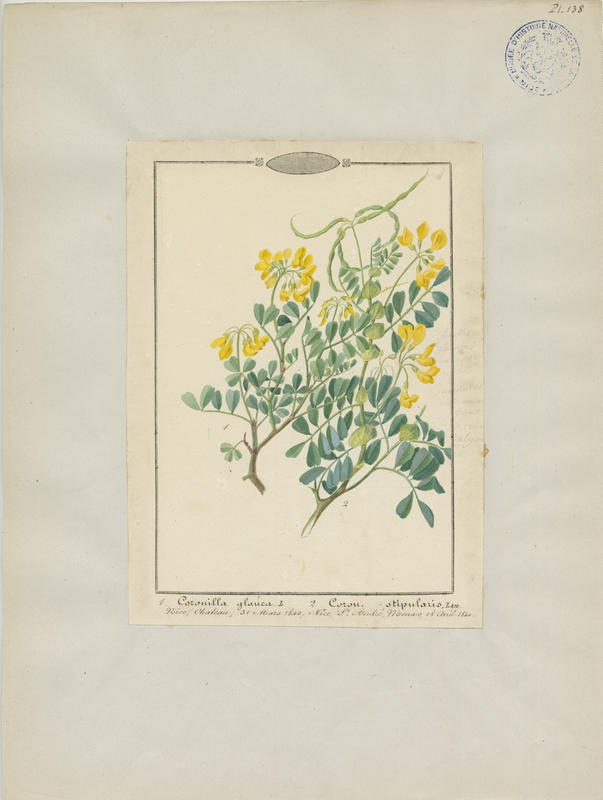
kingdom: Plantae
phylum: Tracheophyta
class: Magnoliopsida
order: Fabales
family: Fabaceae
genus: Coronilla
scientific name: Coronilla valentina
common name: Shrubby scorpion-vetch
